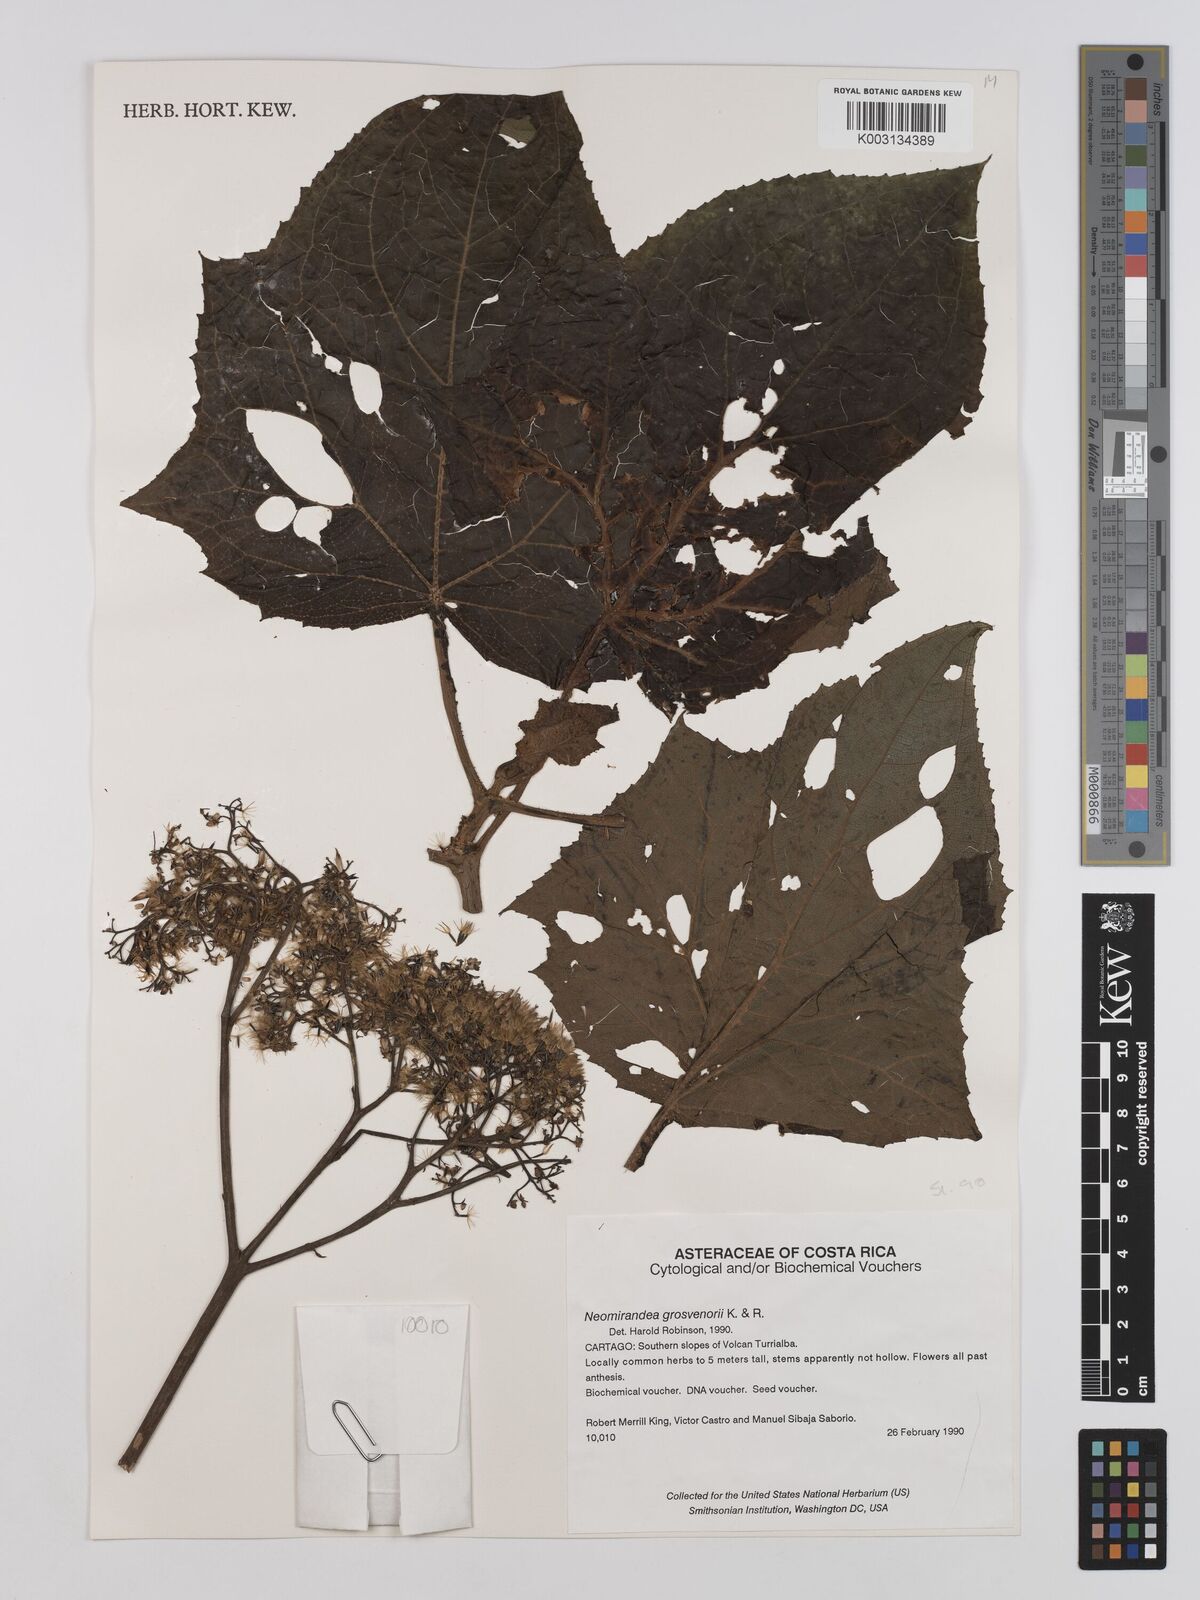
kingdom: Plantae
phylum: Tracheophyta
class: Magnoliopsida
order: Asterales
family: Asteraceae
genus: Neomirandea
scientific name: Neomirandea burgeri
